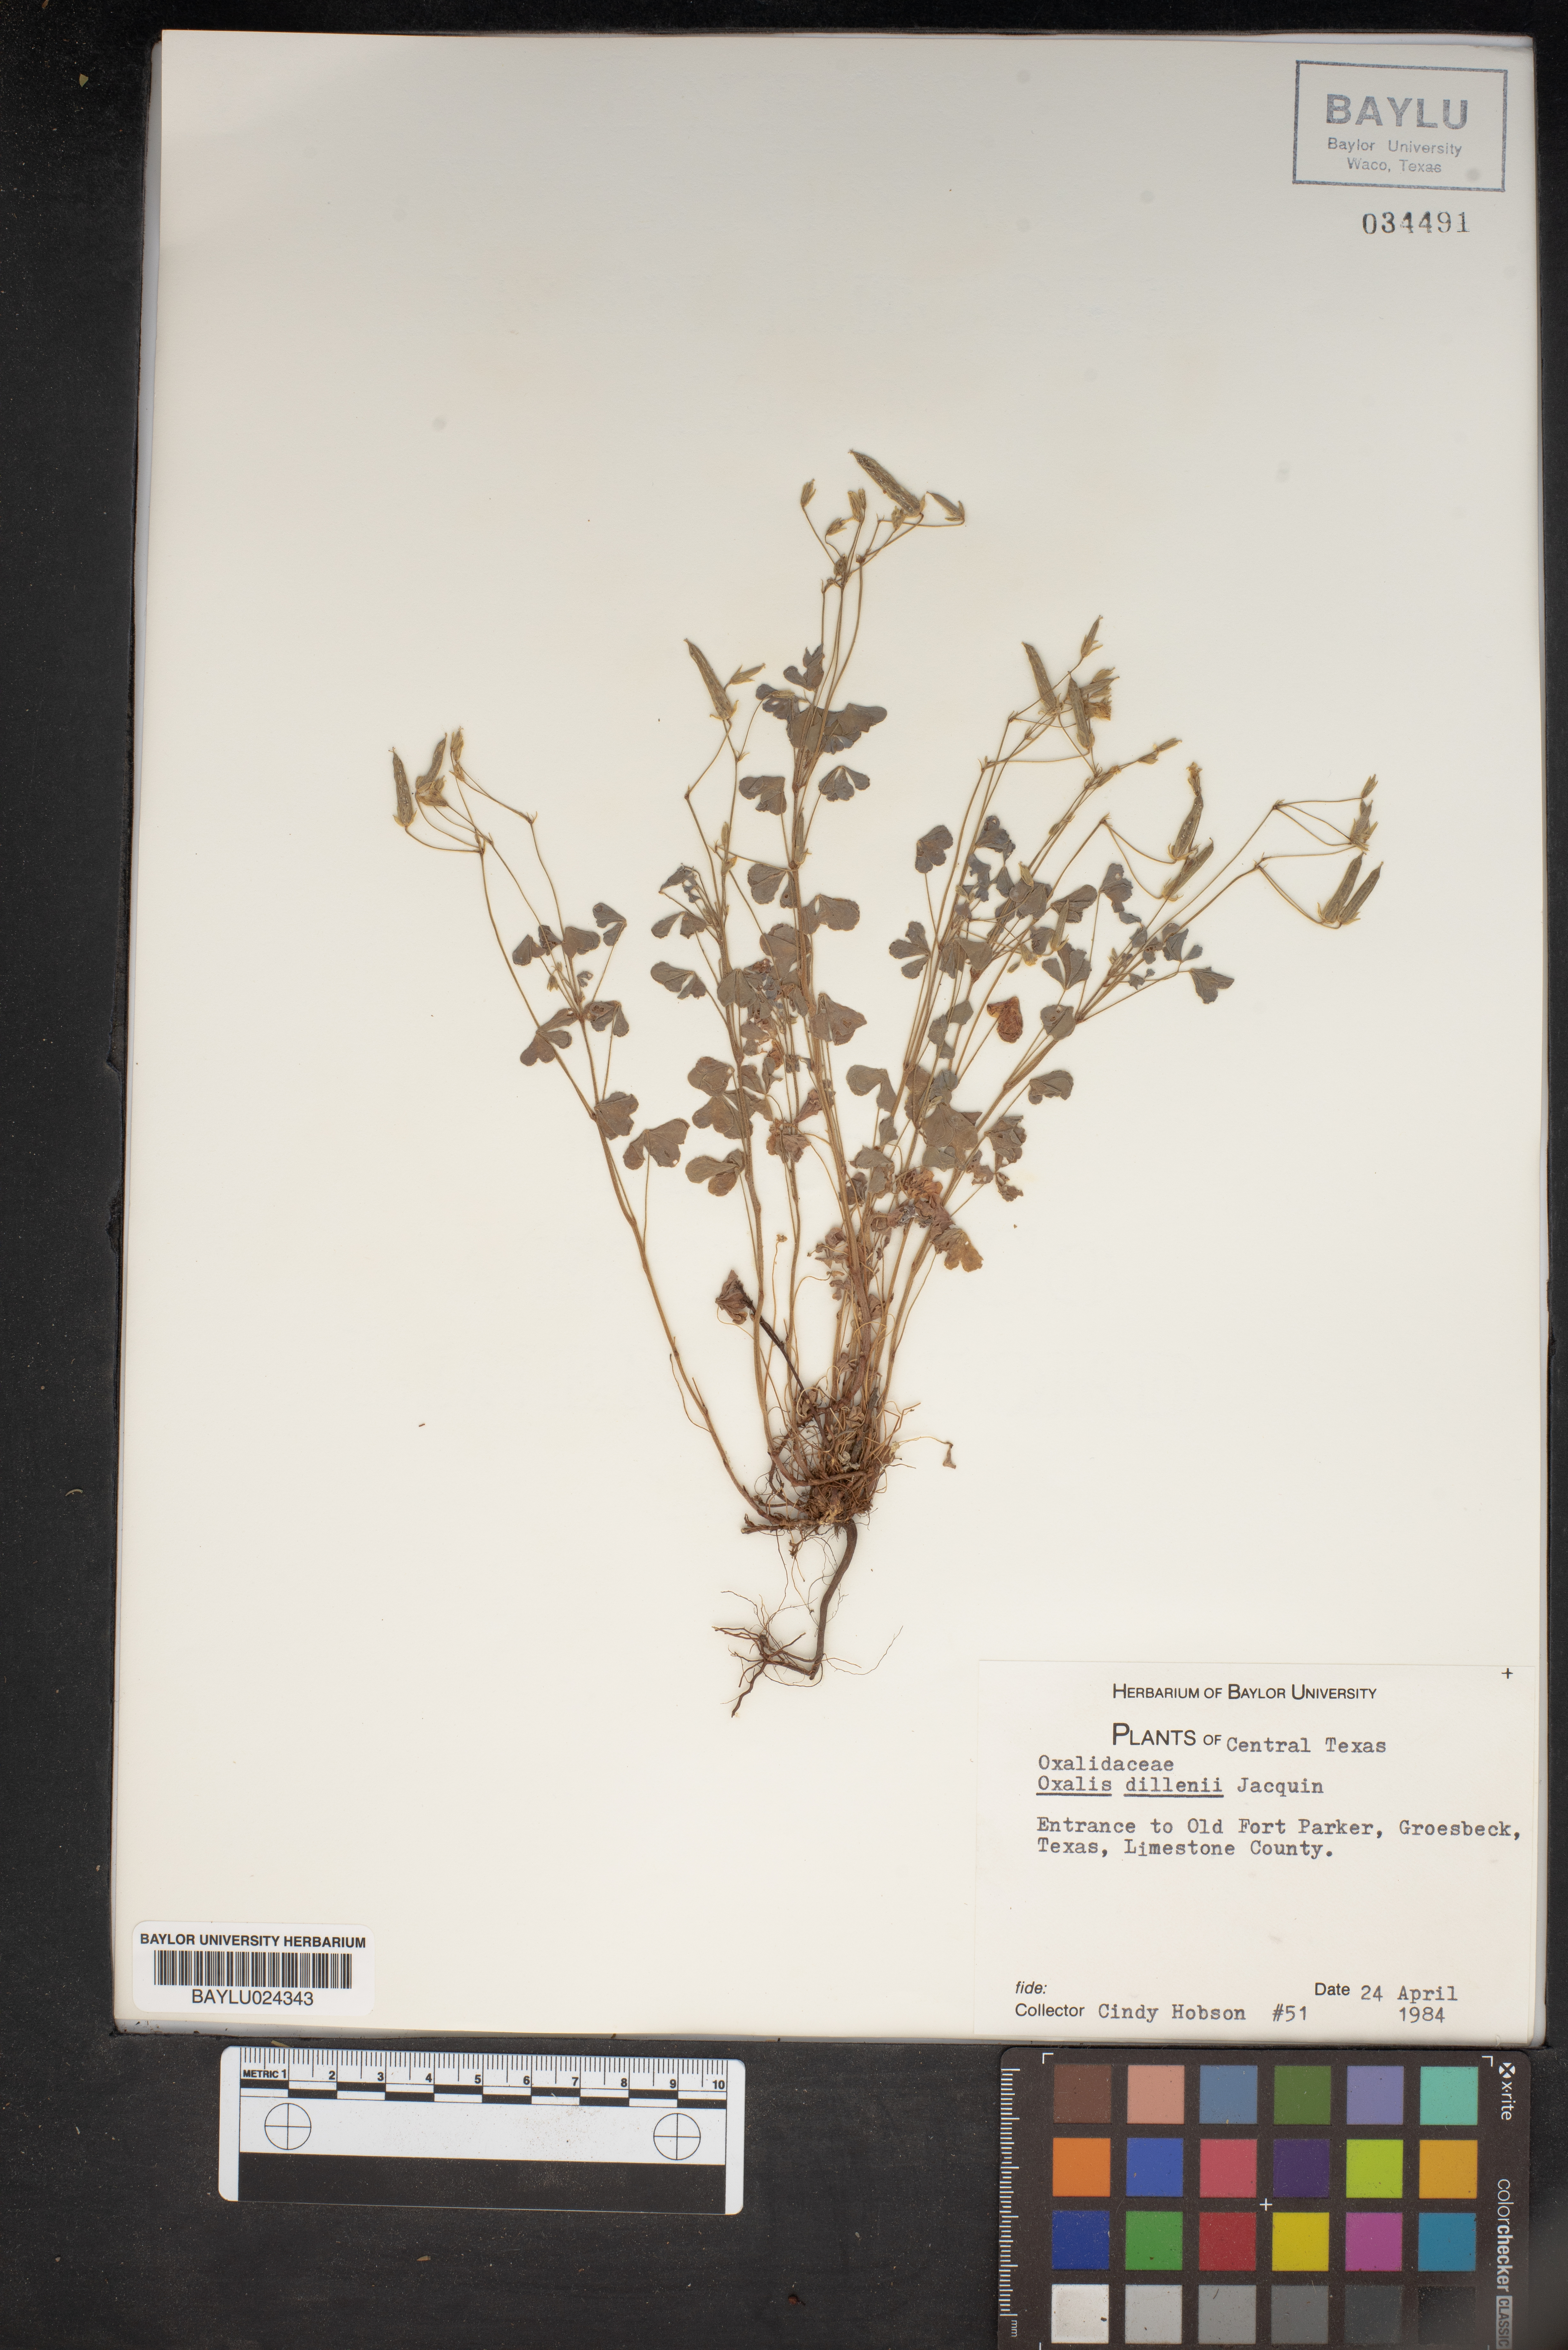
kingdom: Plantae
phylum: Tracheophyta
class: Magnoliopsida
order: Oxalidales
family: Oxalidaceae
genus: Oxalis
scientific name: Oxalis dillenii
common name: Sussex yellow-sorrel
